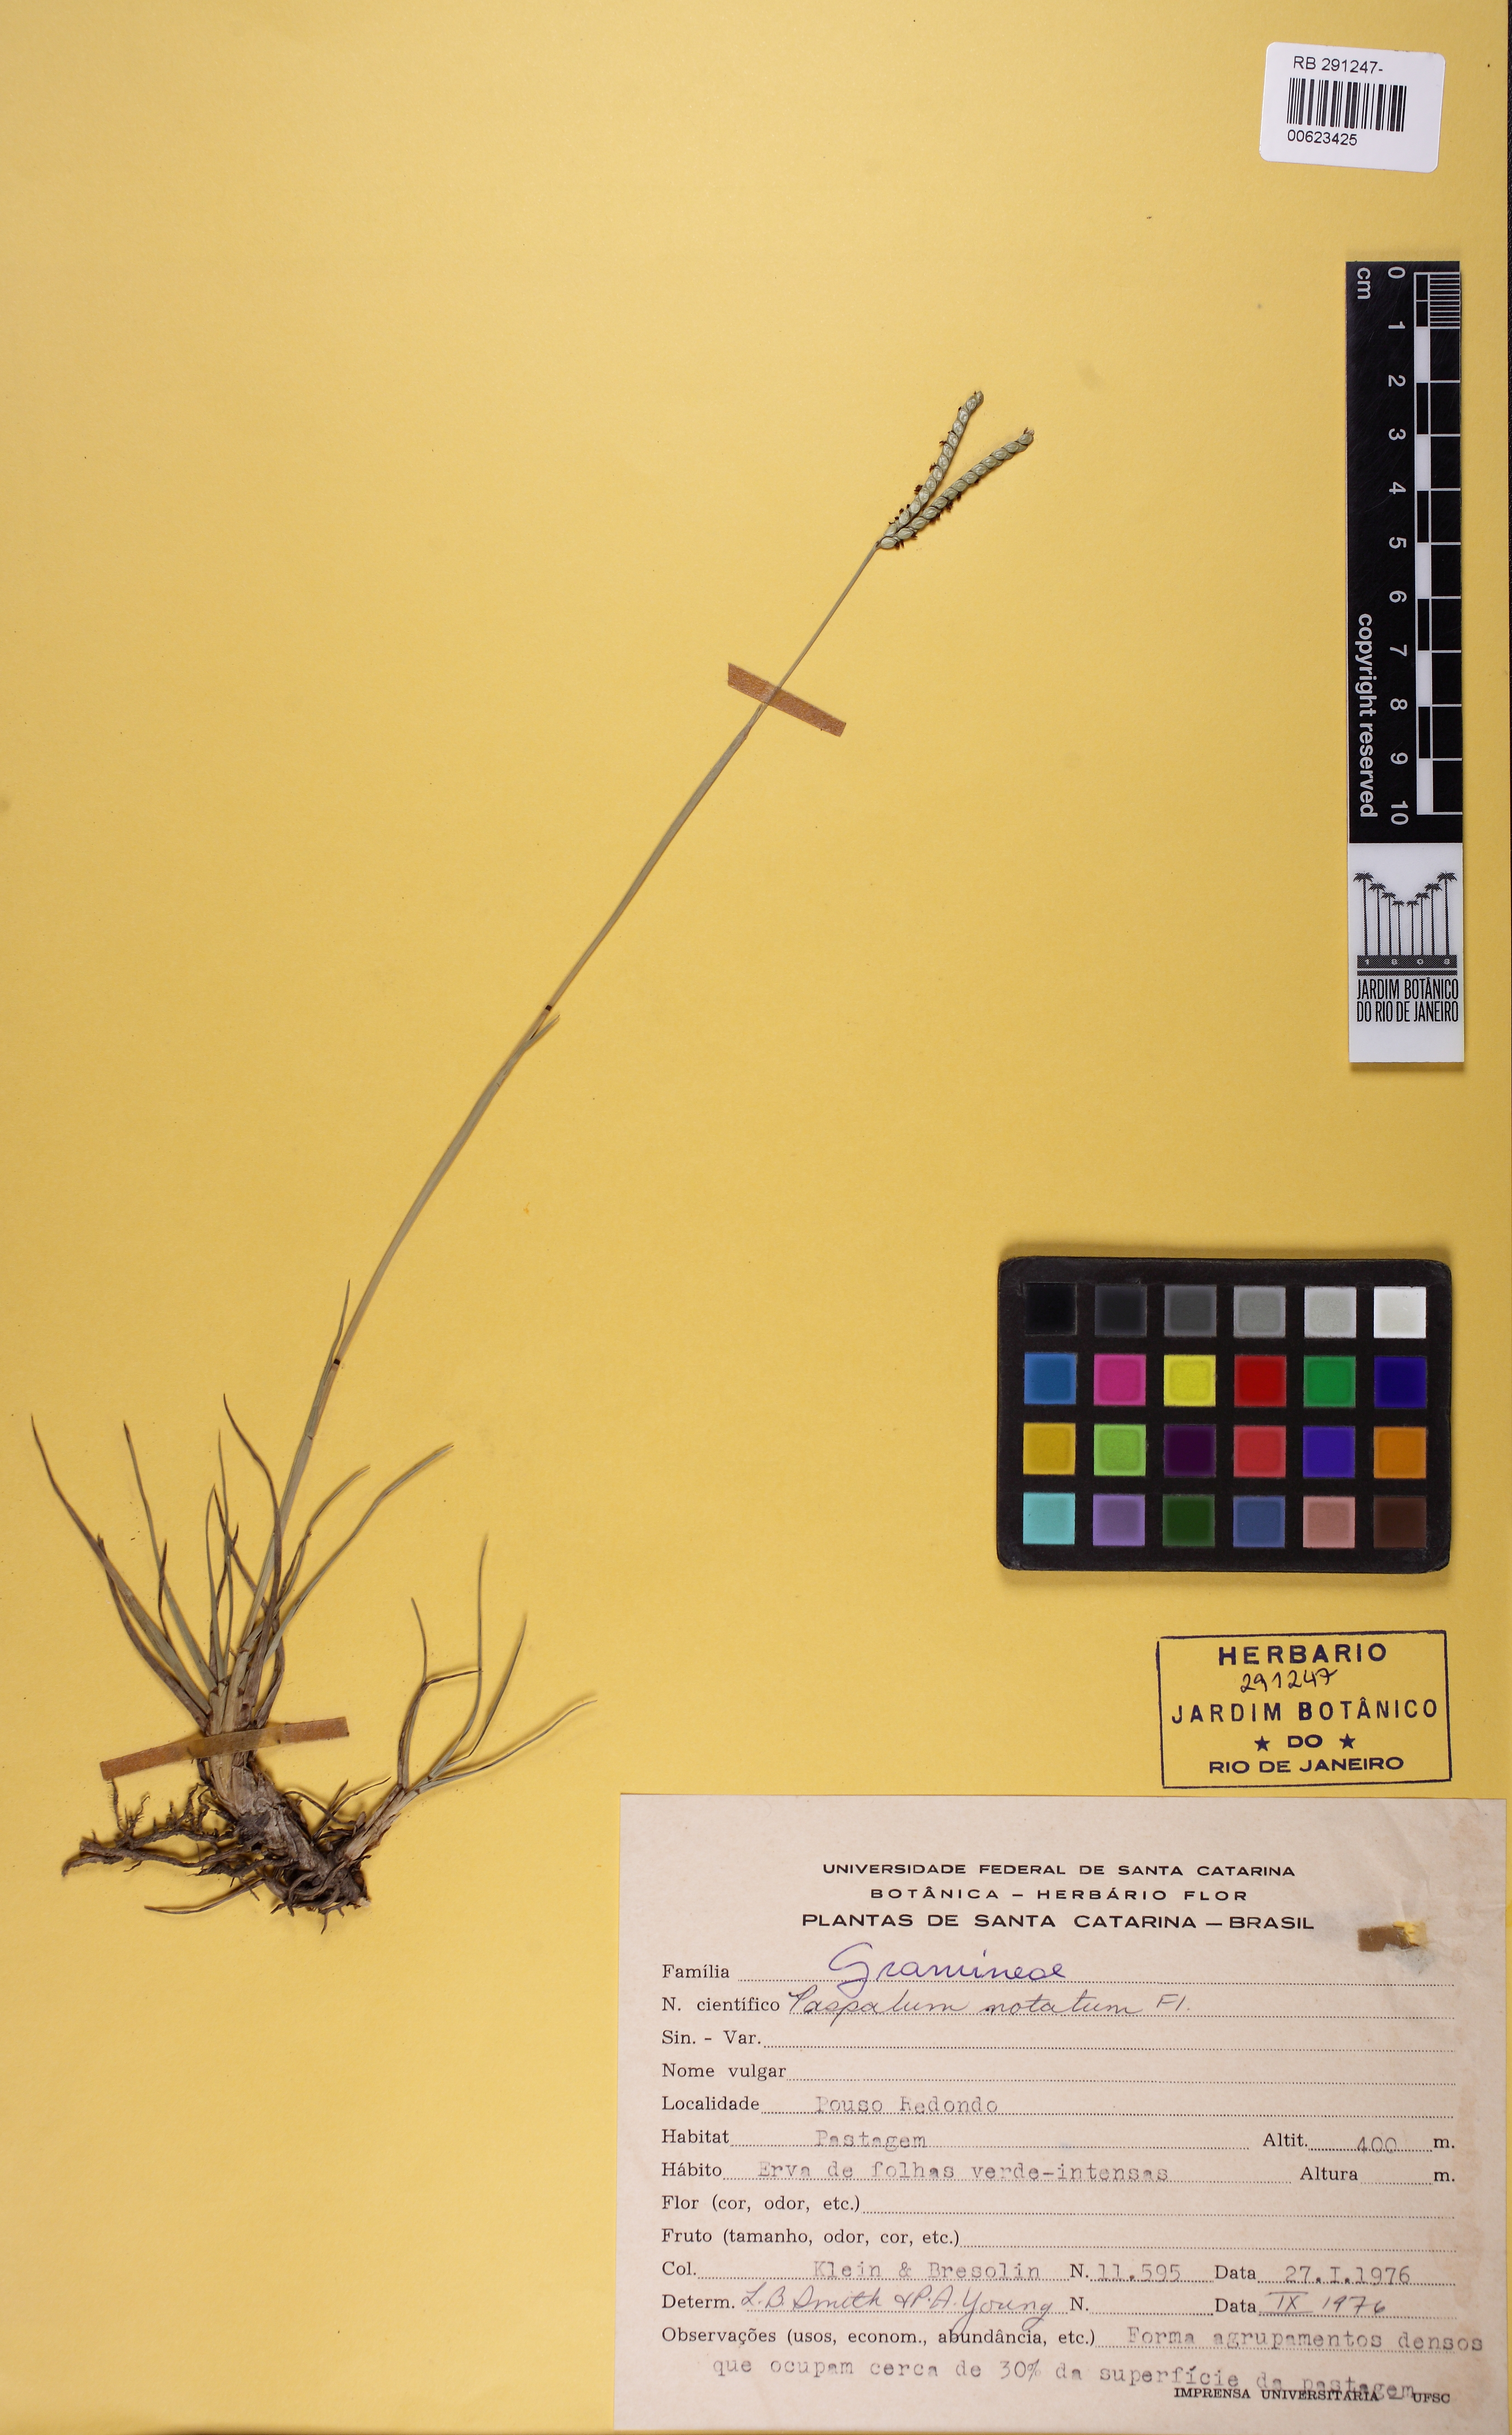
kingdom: Plantae
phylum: Tracheophyta
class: Liliopsida
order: Poales
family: Poaceae
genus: Paspalum
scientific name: Paspalum notatum
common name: Bahiagrass
